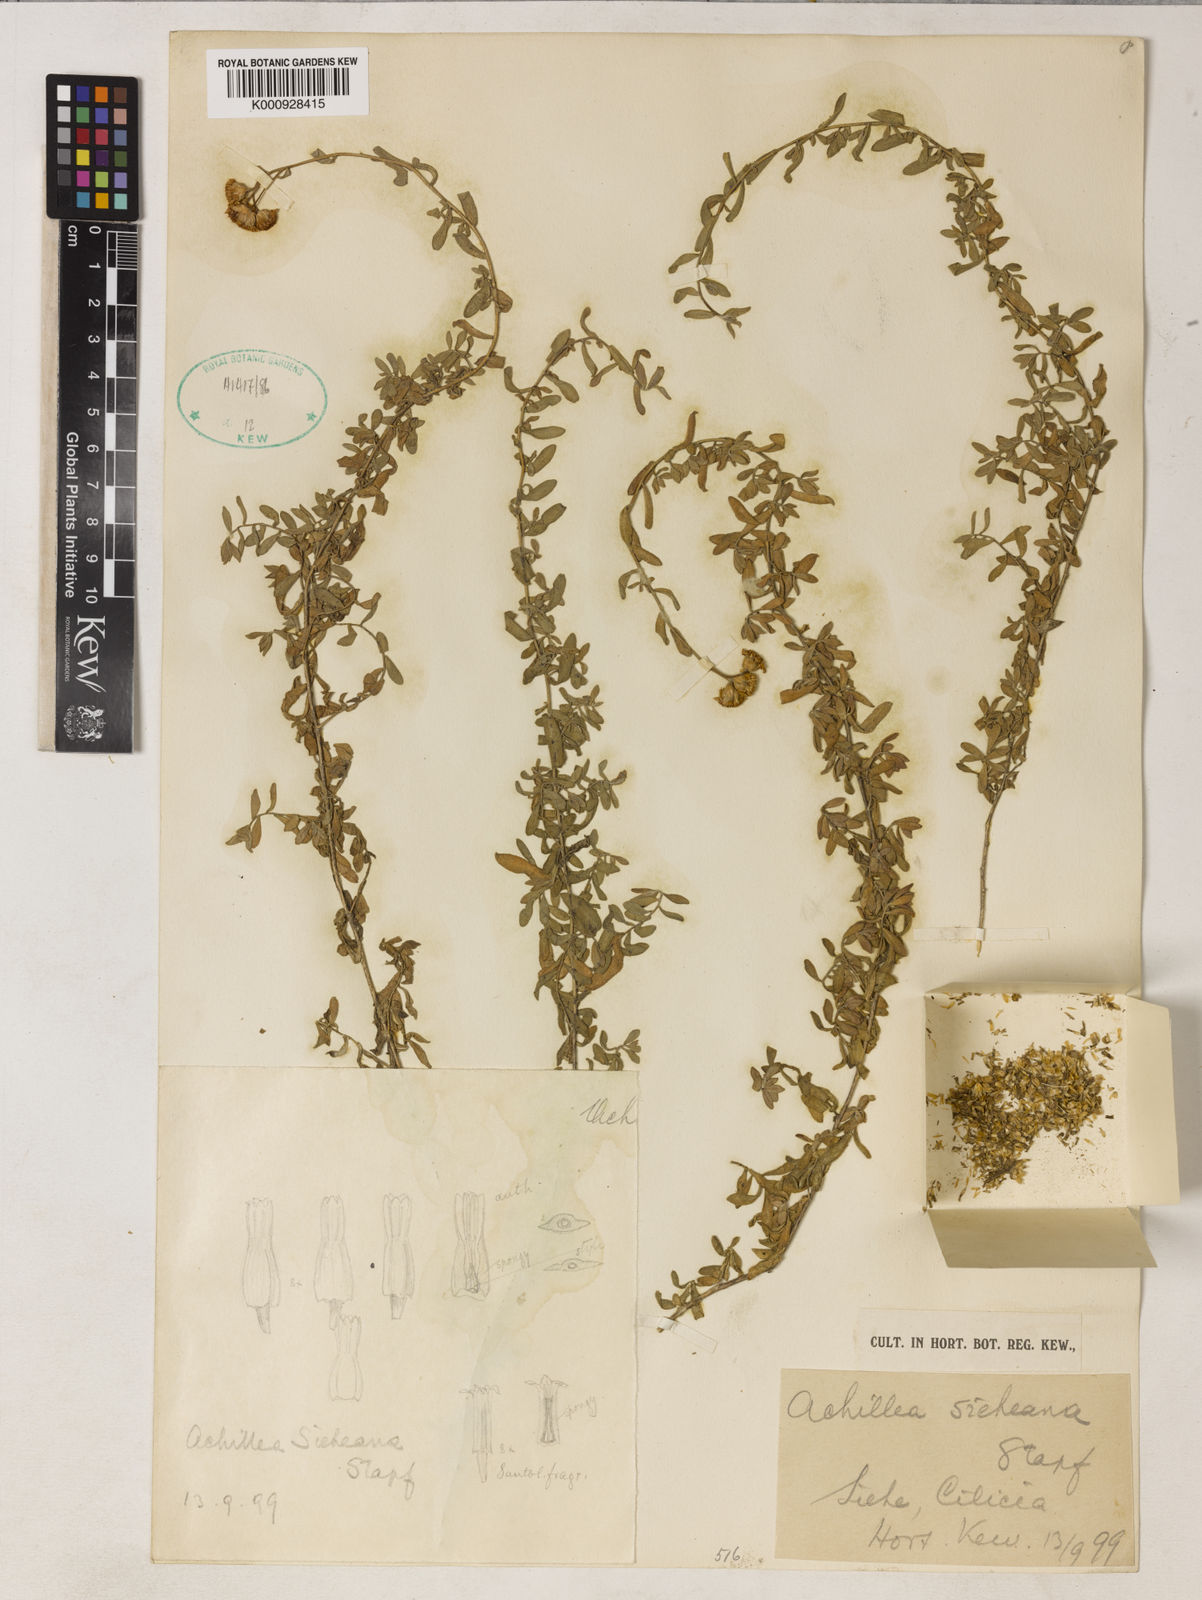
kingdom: Plantae
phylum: Tracheophyta
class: Magnoliopsida
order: Asterales
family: Asteraceae
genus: Achillea
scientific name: Achillea sieheana
